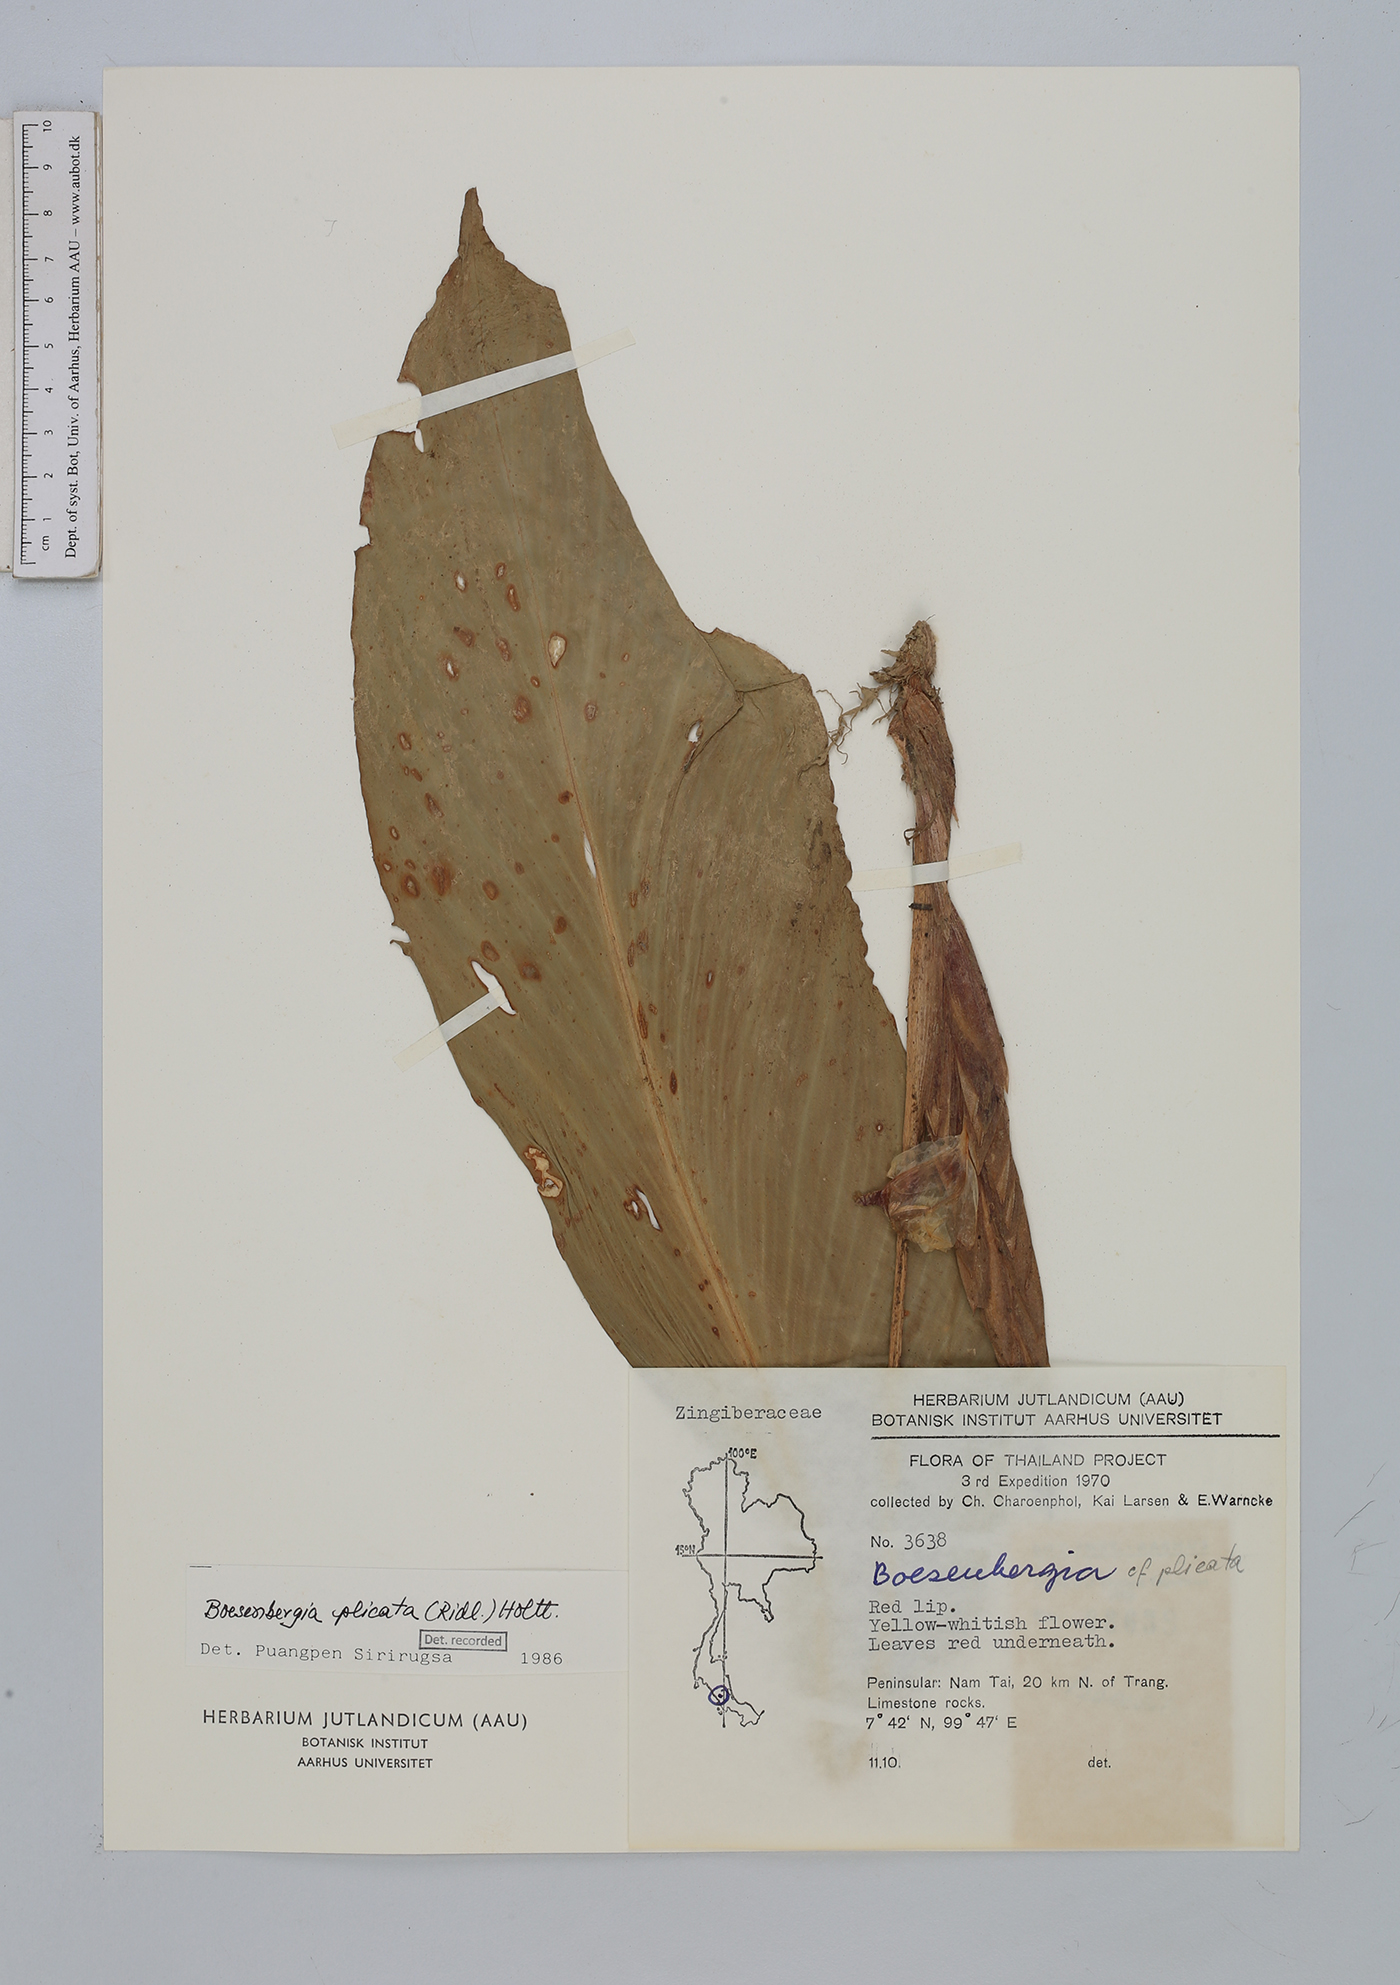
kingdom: Plantae
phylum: Tracheophyta
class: Liliopsida
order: Zingiberales
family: Zingiberaceae
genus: Boesenbergia
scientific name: Boesenbergia plicata
